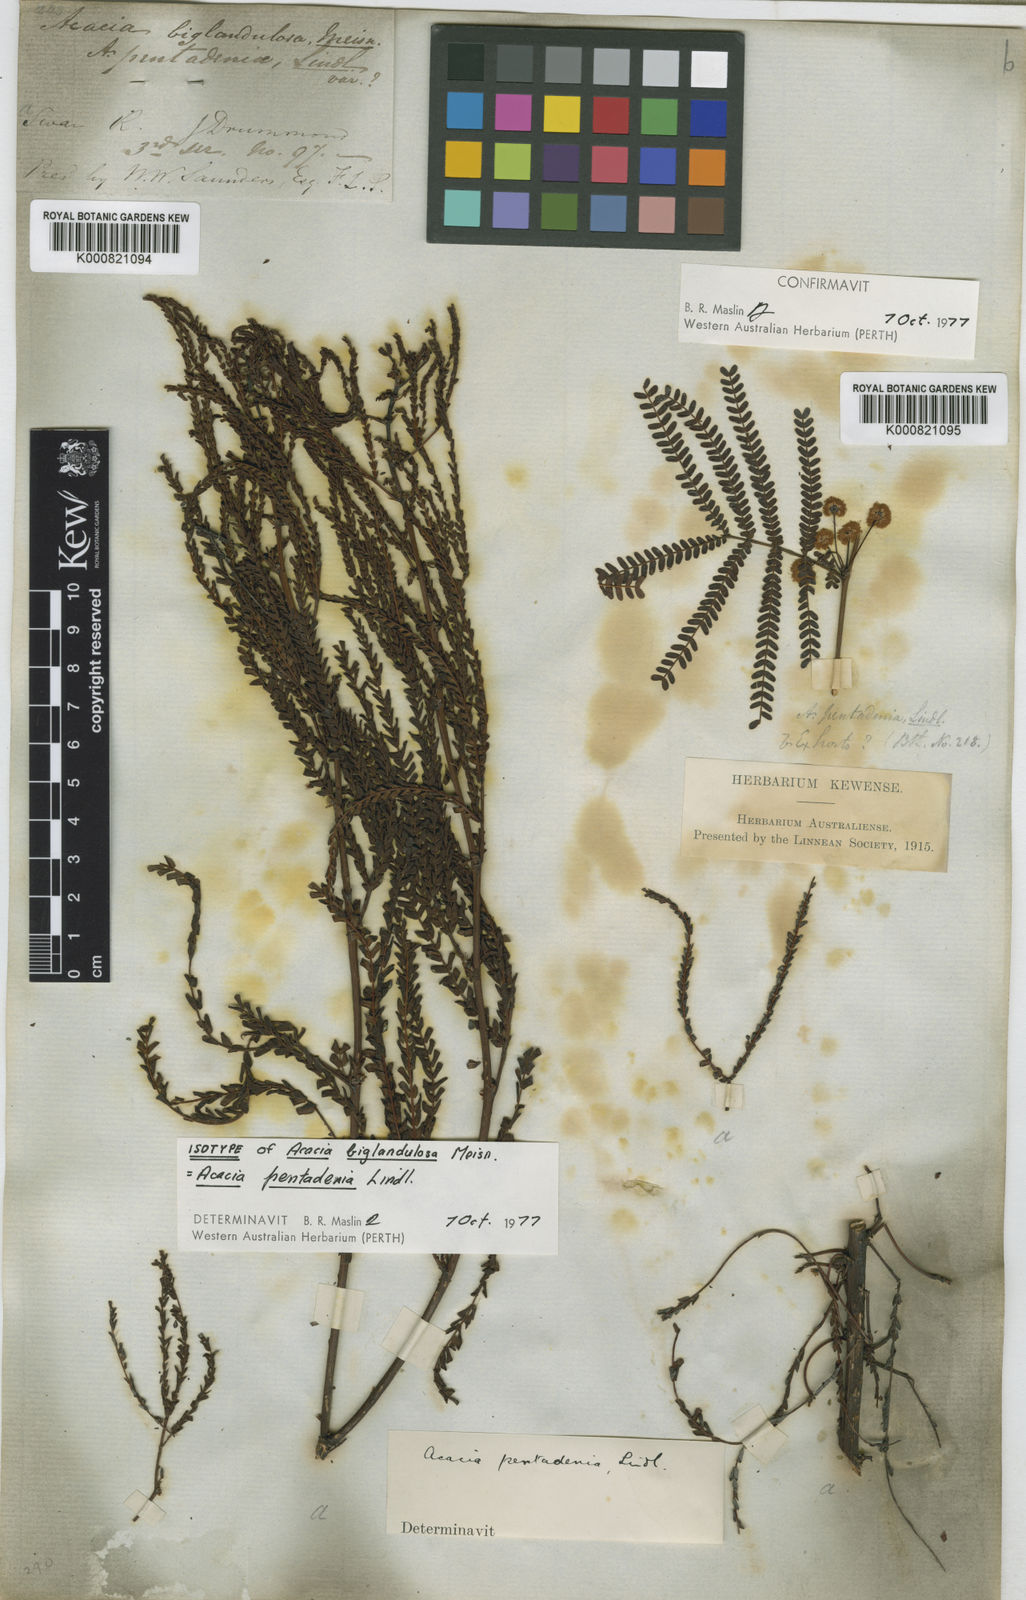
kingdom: Plantae
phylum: Tracheophyta
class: Magnoliopsida
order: Fabales
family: Fabaceae
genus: Acacia
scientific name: Acacia pentadenia
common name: Karri wattle
